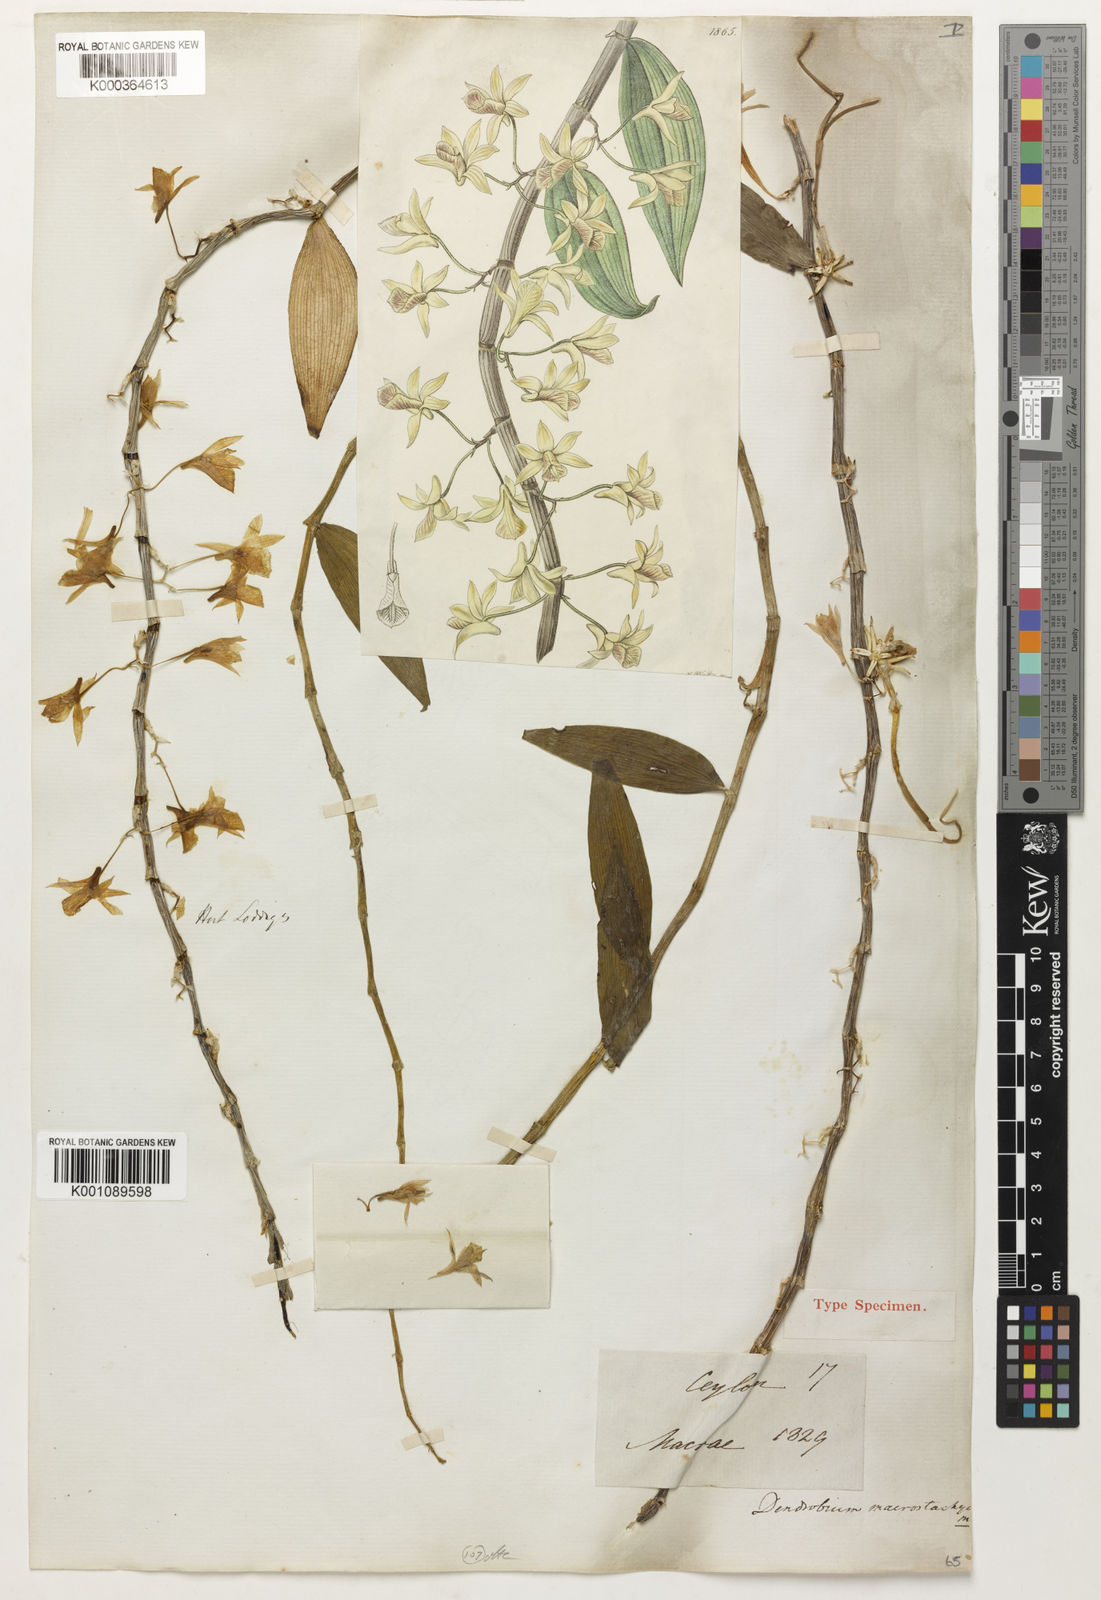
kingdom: Plantae
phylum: Tracheophyta
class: Liliopsida
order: Asparagales
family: Orchidaceae
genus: Dendrobium
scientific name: Dendrobium macrostachyum
